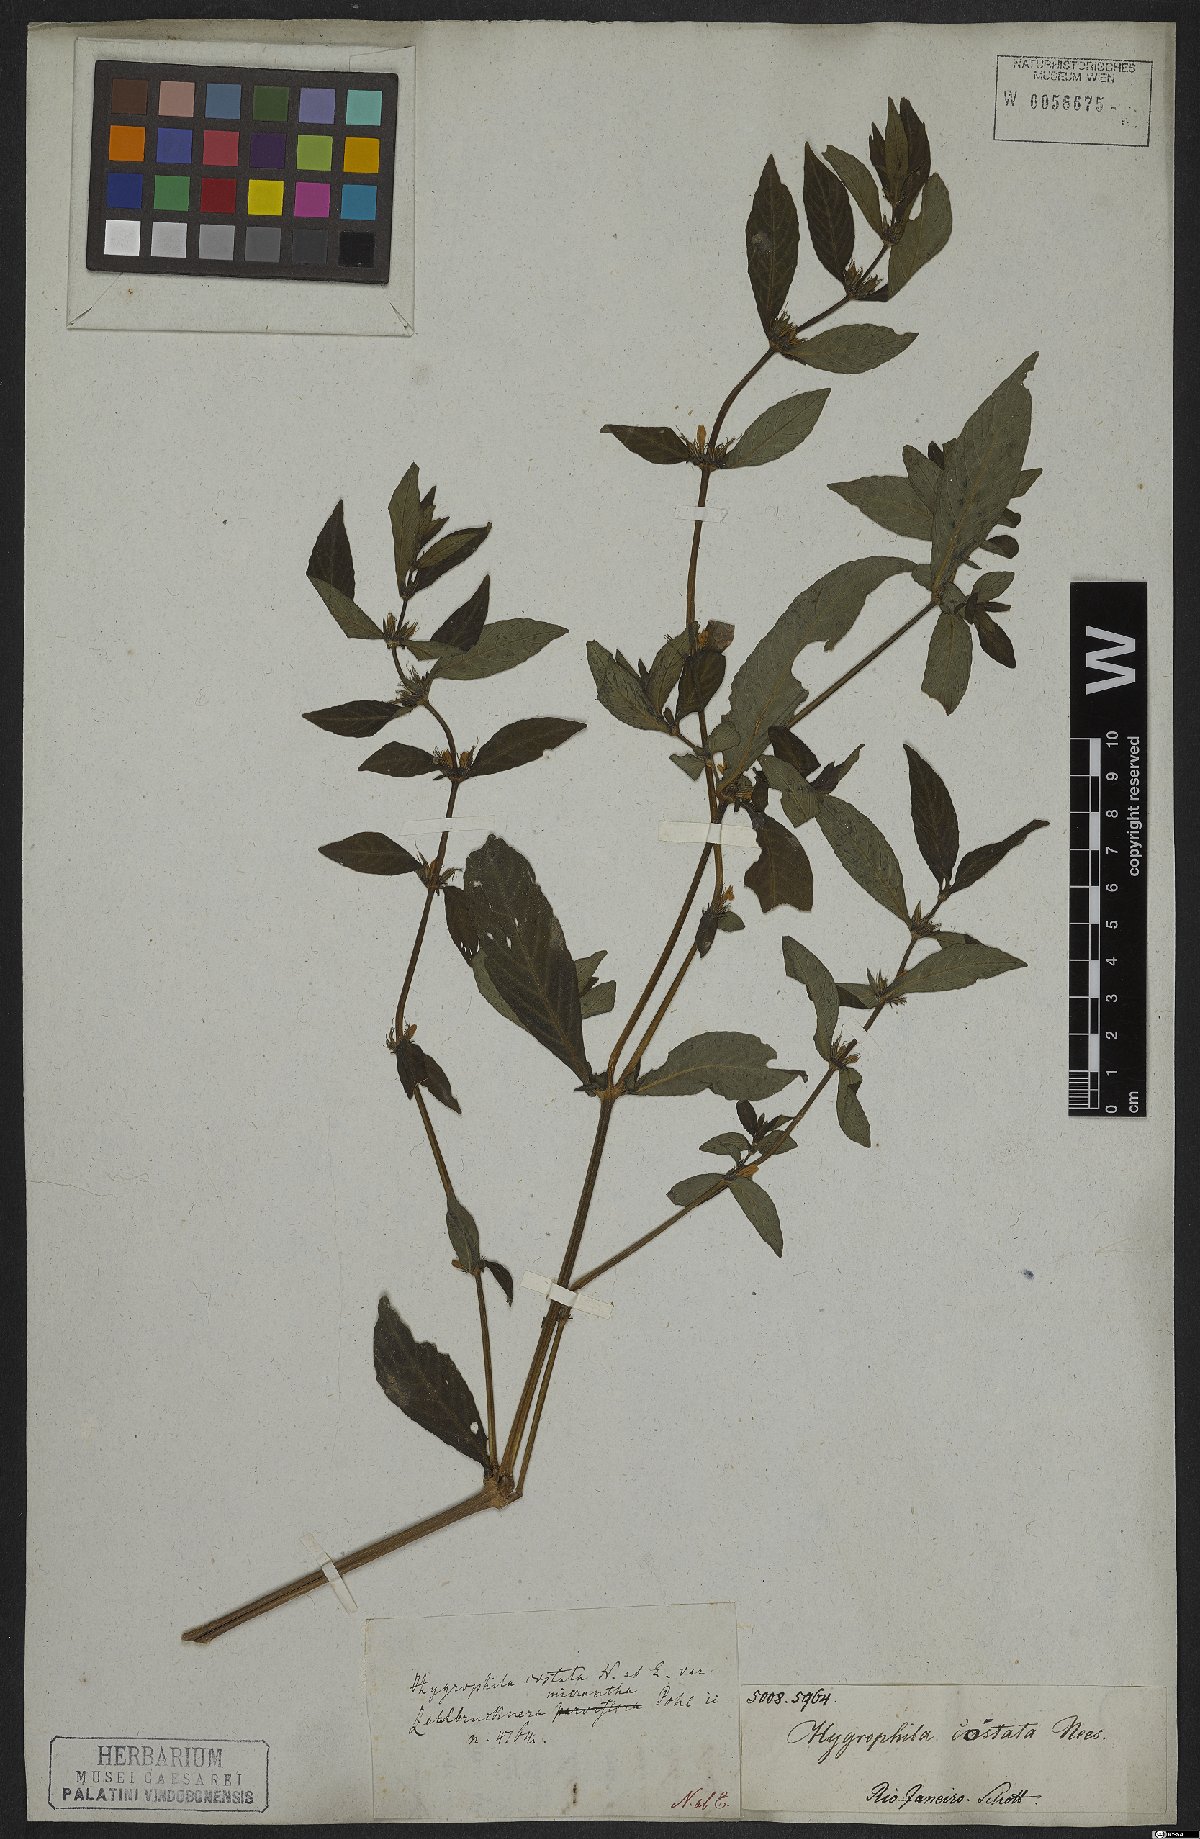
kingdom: Plantae
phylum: Tracheophyta
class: Magnoliopsida
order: Lamiales
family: Acanthaceae
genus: Hygrophila
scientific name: Hygrophila costata
